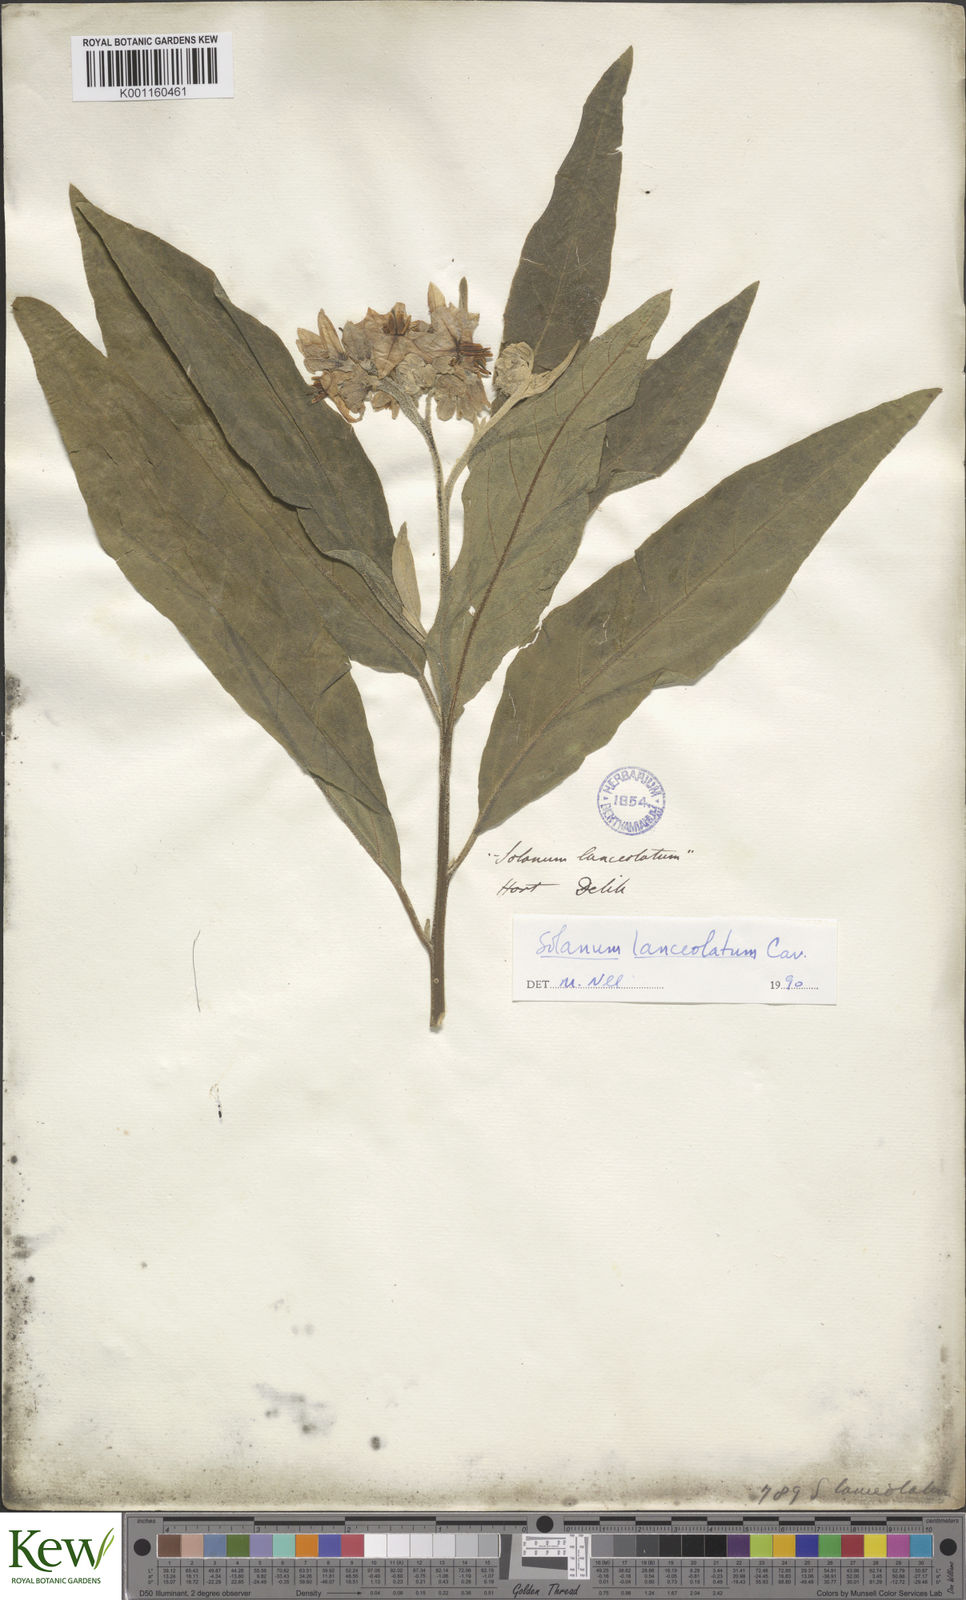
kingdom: Plantae
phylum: Tracheophyta
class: Magnoliopsida
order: Solanales
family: Solanaceae
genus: Solanum
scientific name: Solanum lanceolatum
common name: Orangeberry nightshade
